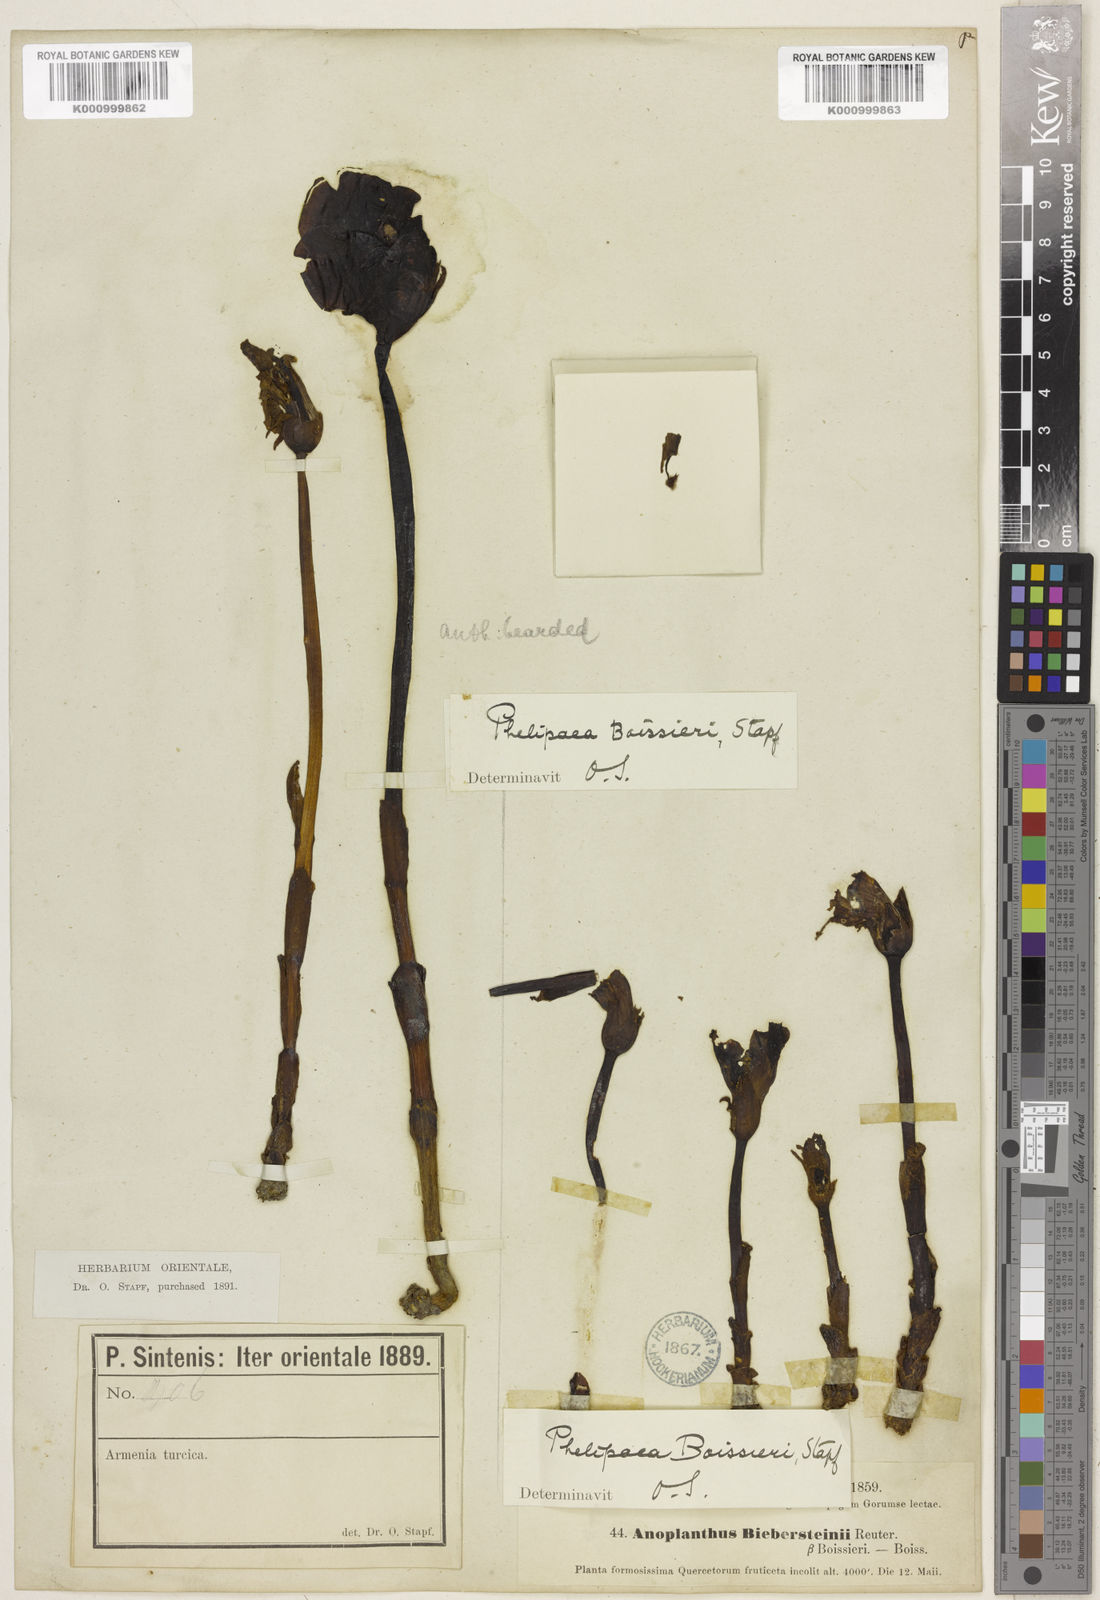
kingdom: Plantae
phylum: Tracheophyta
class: Magnoliopsida
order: Lamiales
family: Orobanchaceae
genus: Phelypaea
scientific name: Phelypaea
